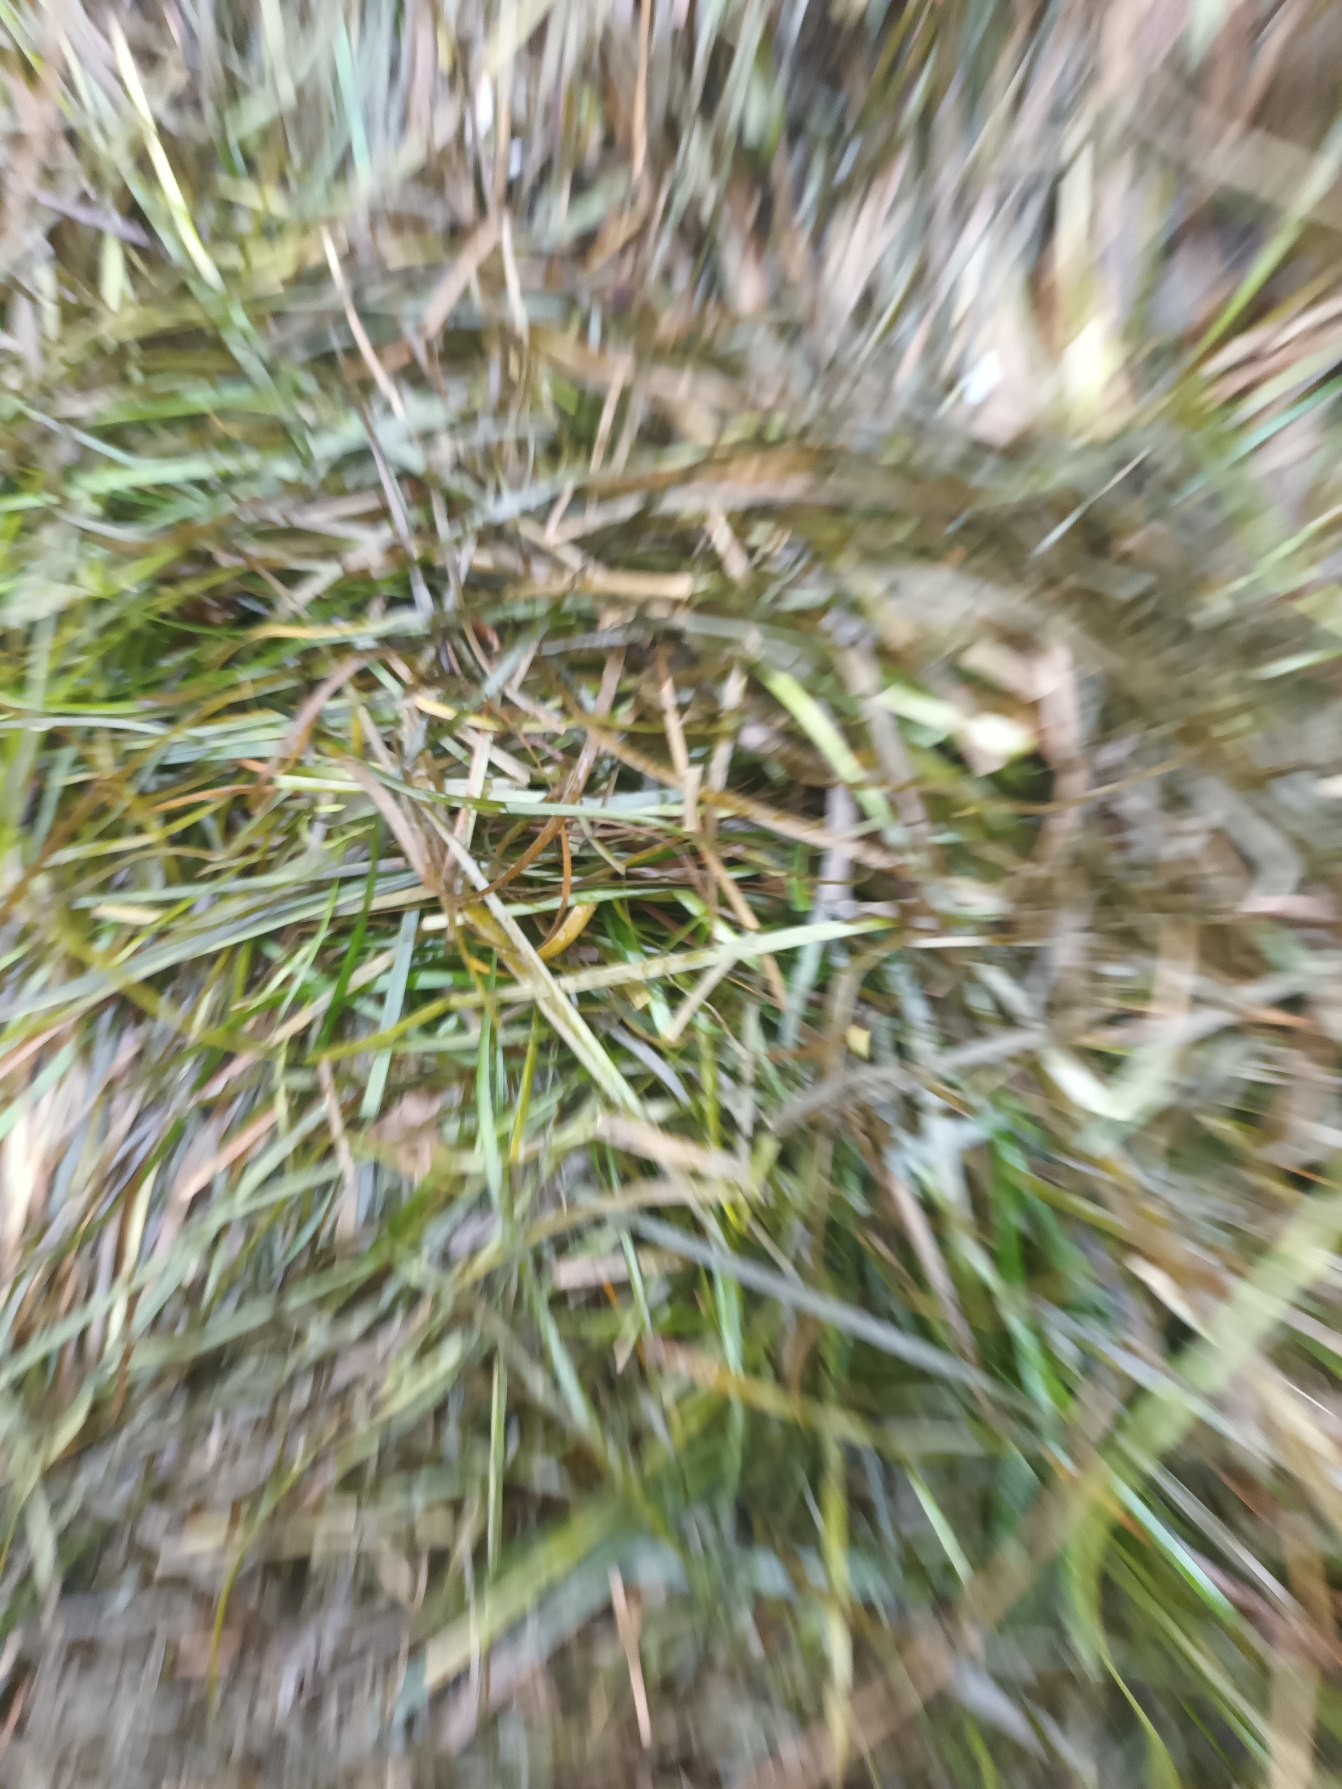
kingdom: Plantae
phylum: Tracheophyta
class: Liliopsida
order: Alismatales
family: Zosteraceae
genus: Zostera
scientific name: Zostera marina
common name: Almindelig bændeltang
